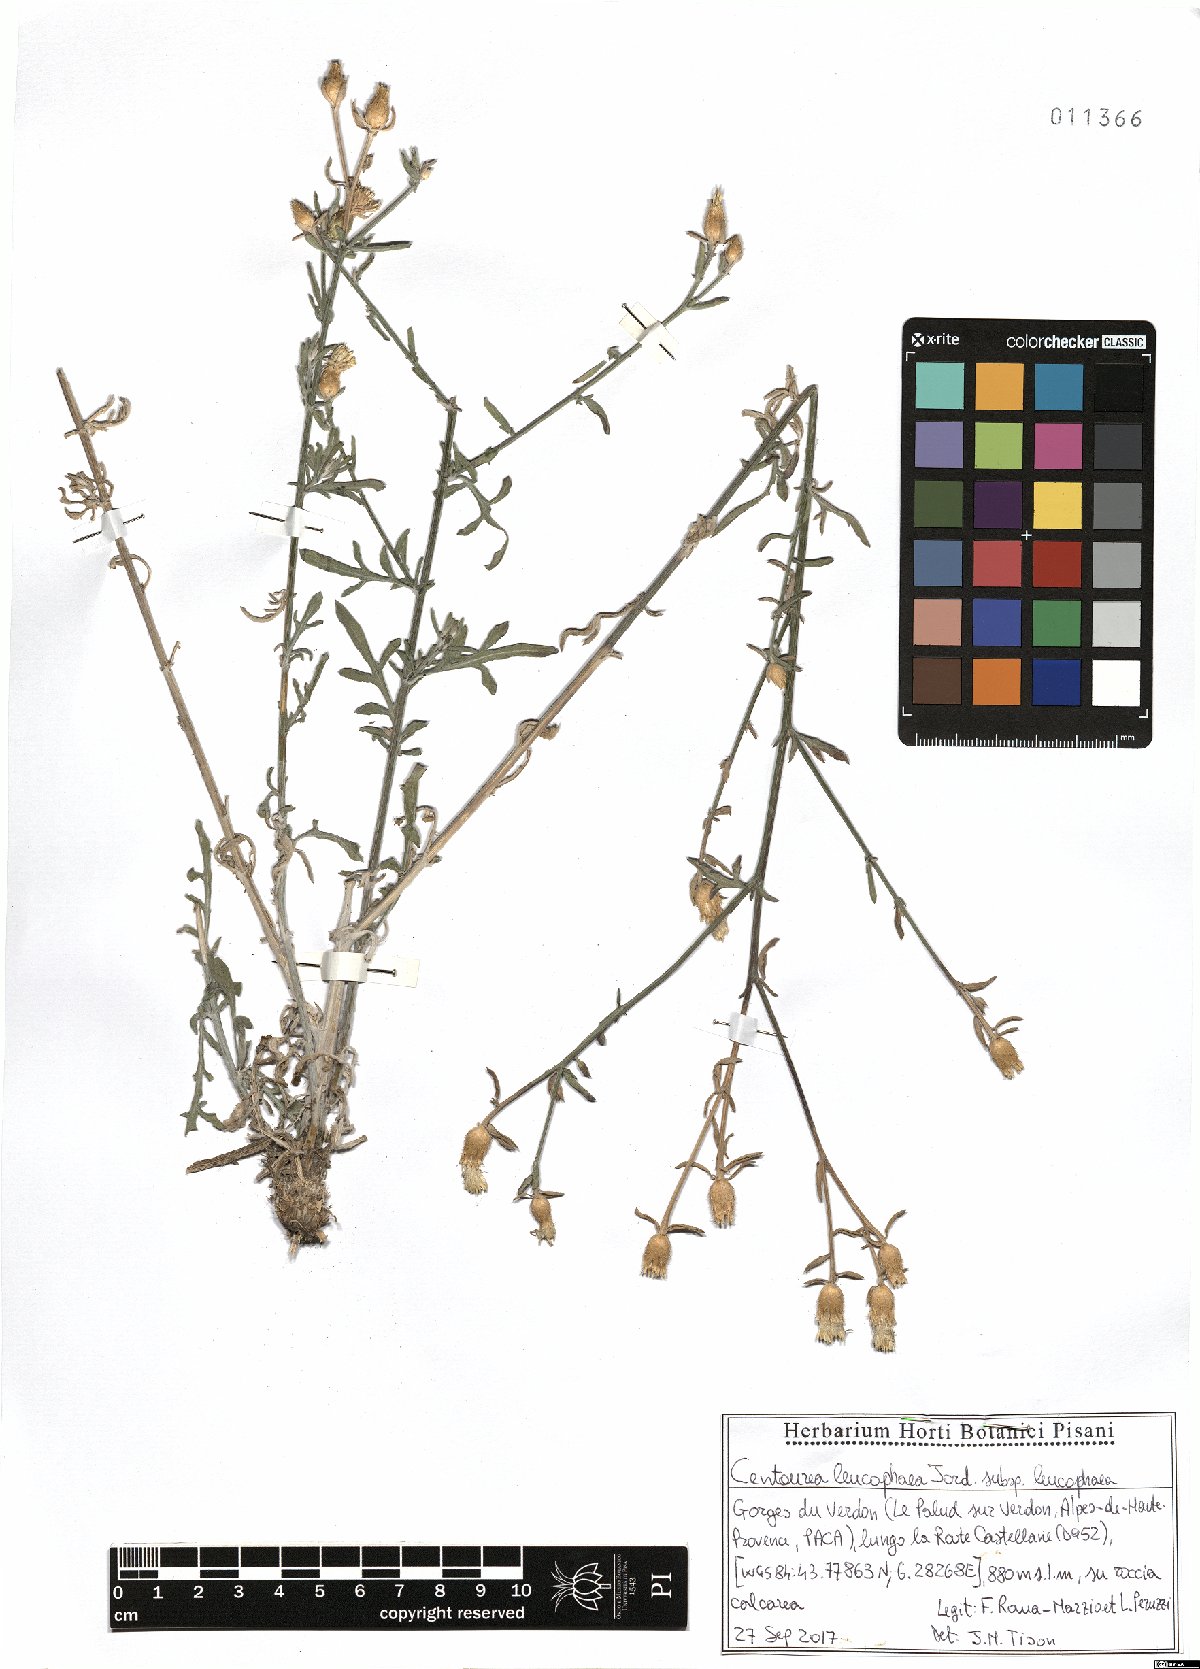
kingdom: Plantae
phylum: Tracheophyta
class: Magnoliopsida
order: Asterales
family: Asteraceae
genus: Centaurea
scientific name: Centaurea leucophaea
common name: Whitish-leaved knapweed
